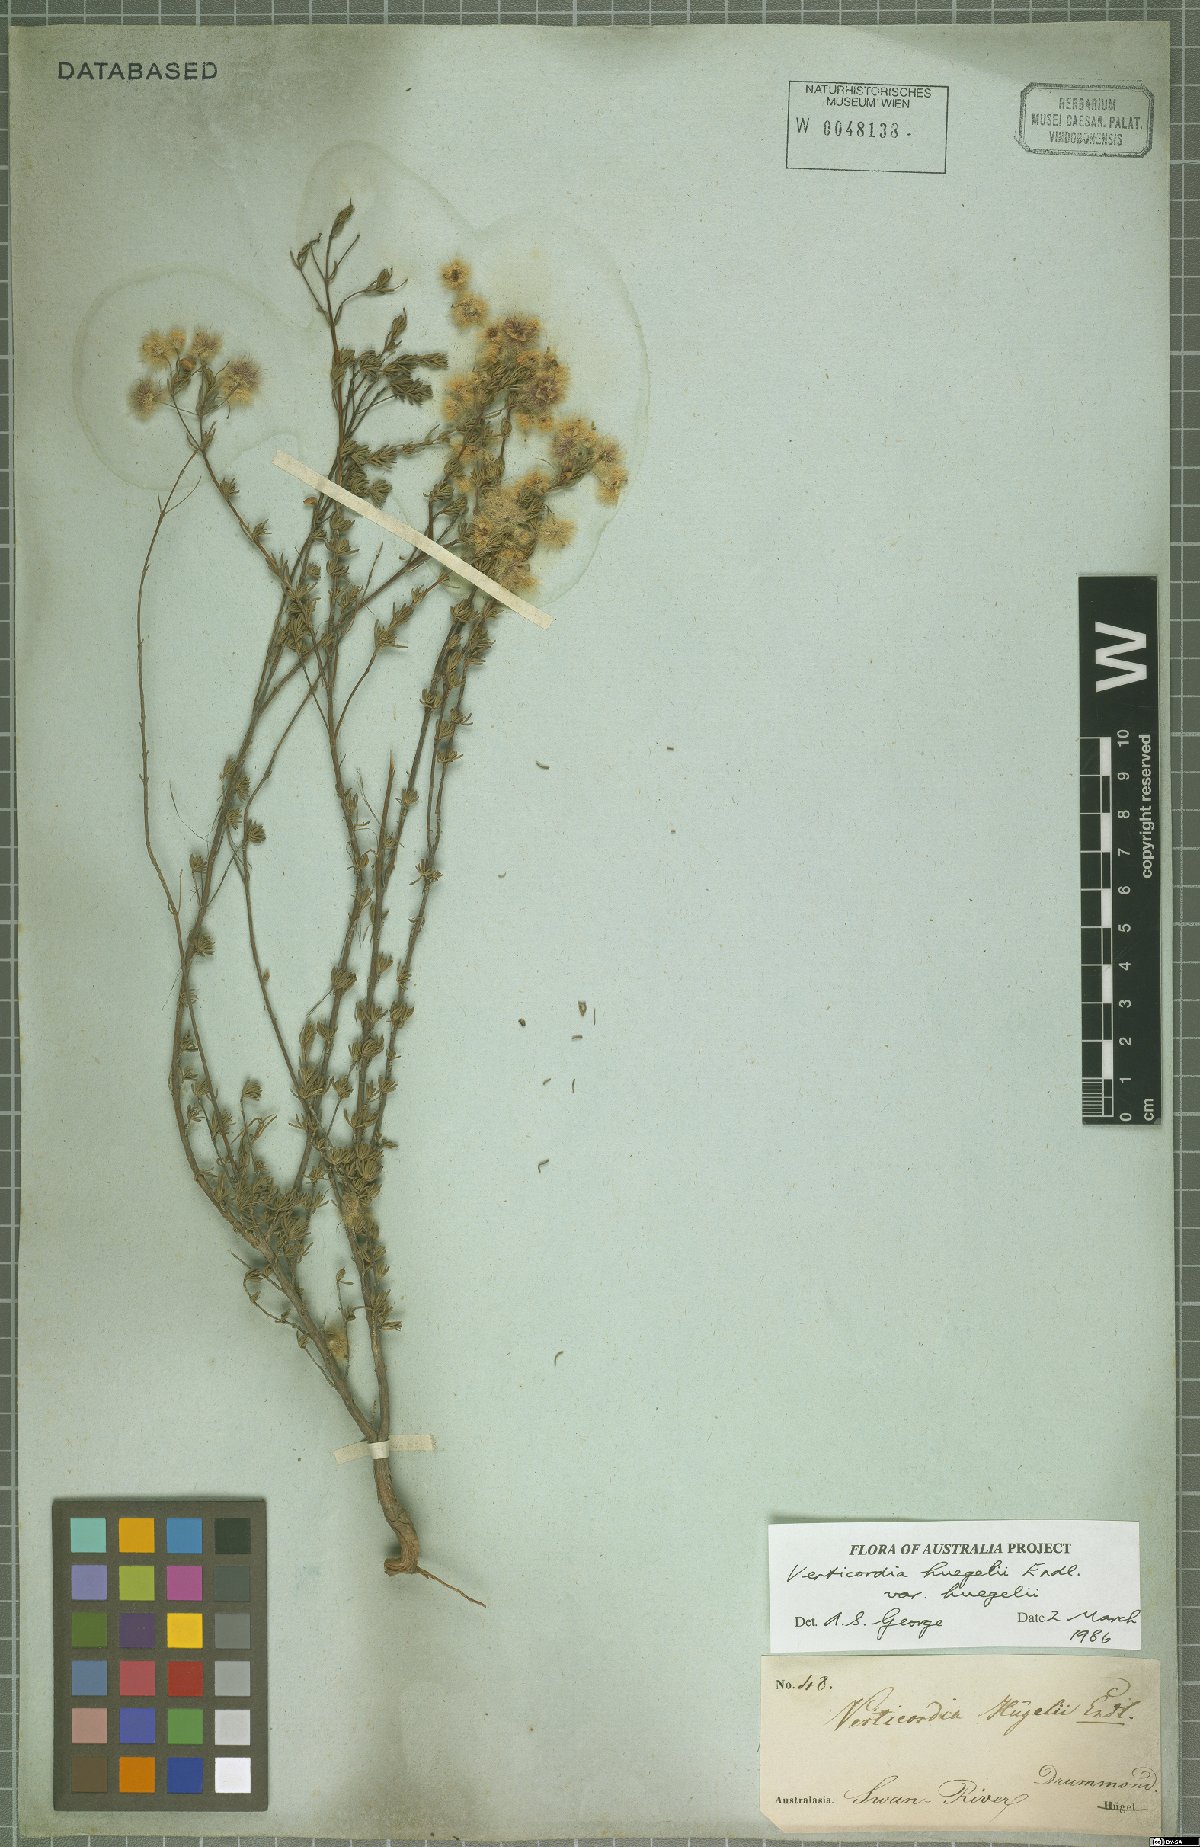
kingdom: Plantae
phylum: Tracheophyta
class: Magnoliopsida
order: Myrtales
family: Myrtaceae
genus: Verticordia
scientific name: Verticordia huegelii
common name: Variegate feather-flower
